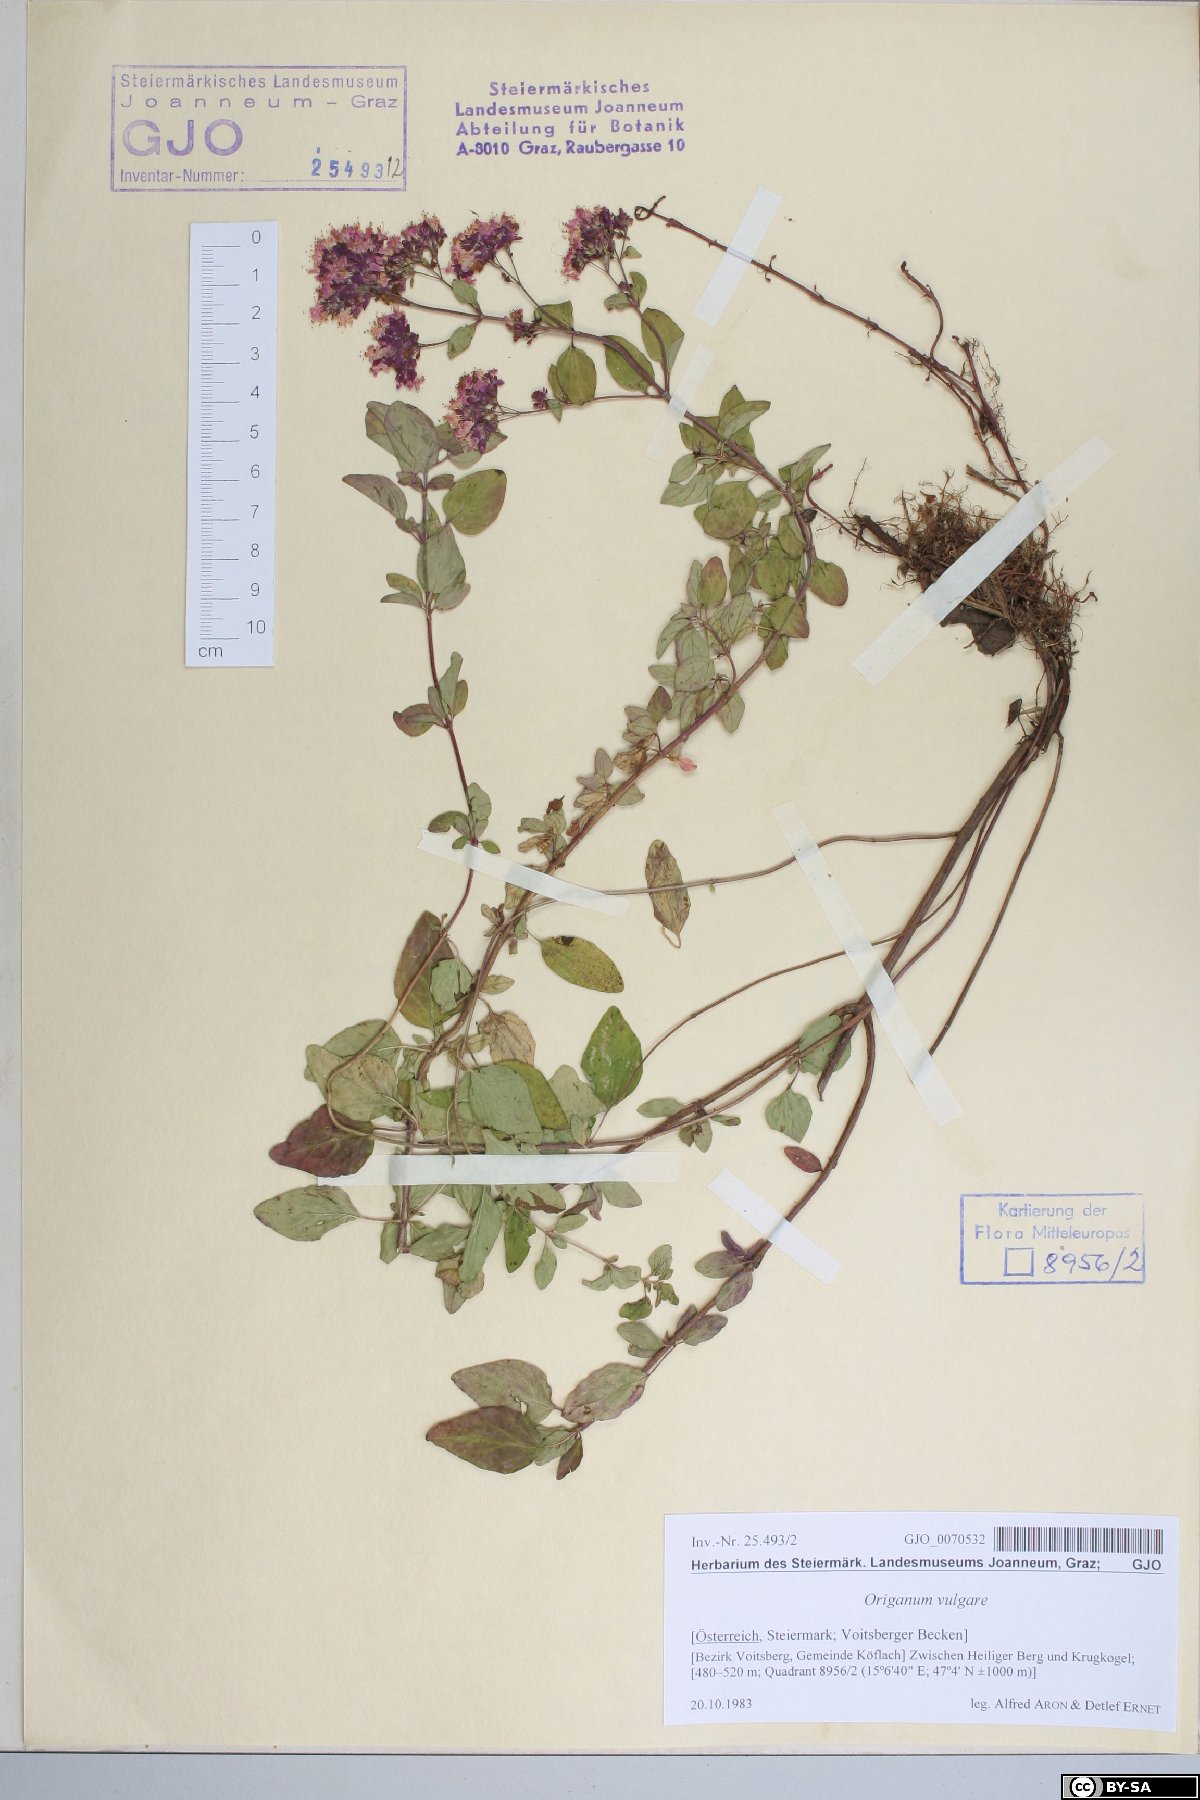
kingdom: Plantae
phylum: Tracheophyta
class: Magnoliopsida
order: Lamiales
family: Lamiaceae
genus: Origanum
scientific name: Origanum vulgare
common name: Wild marjoram
